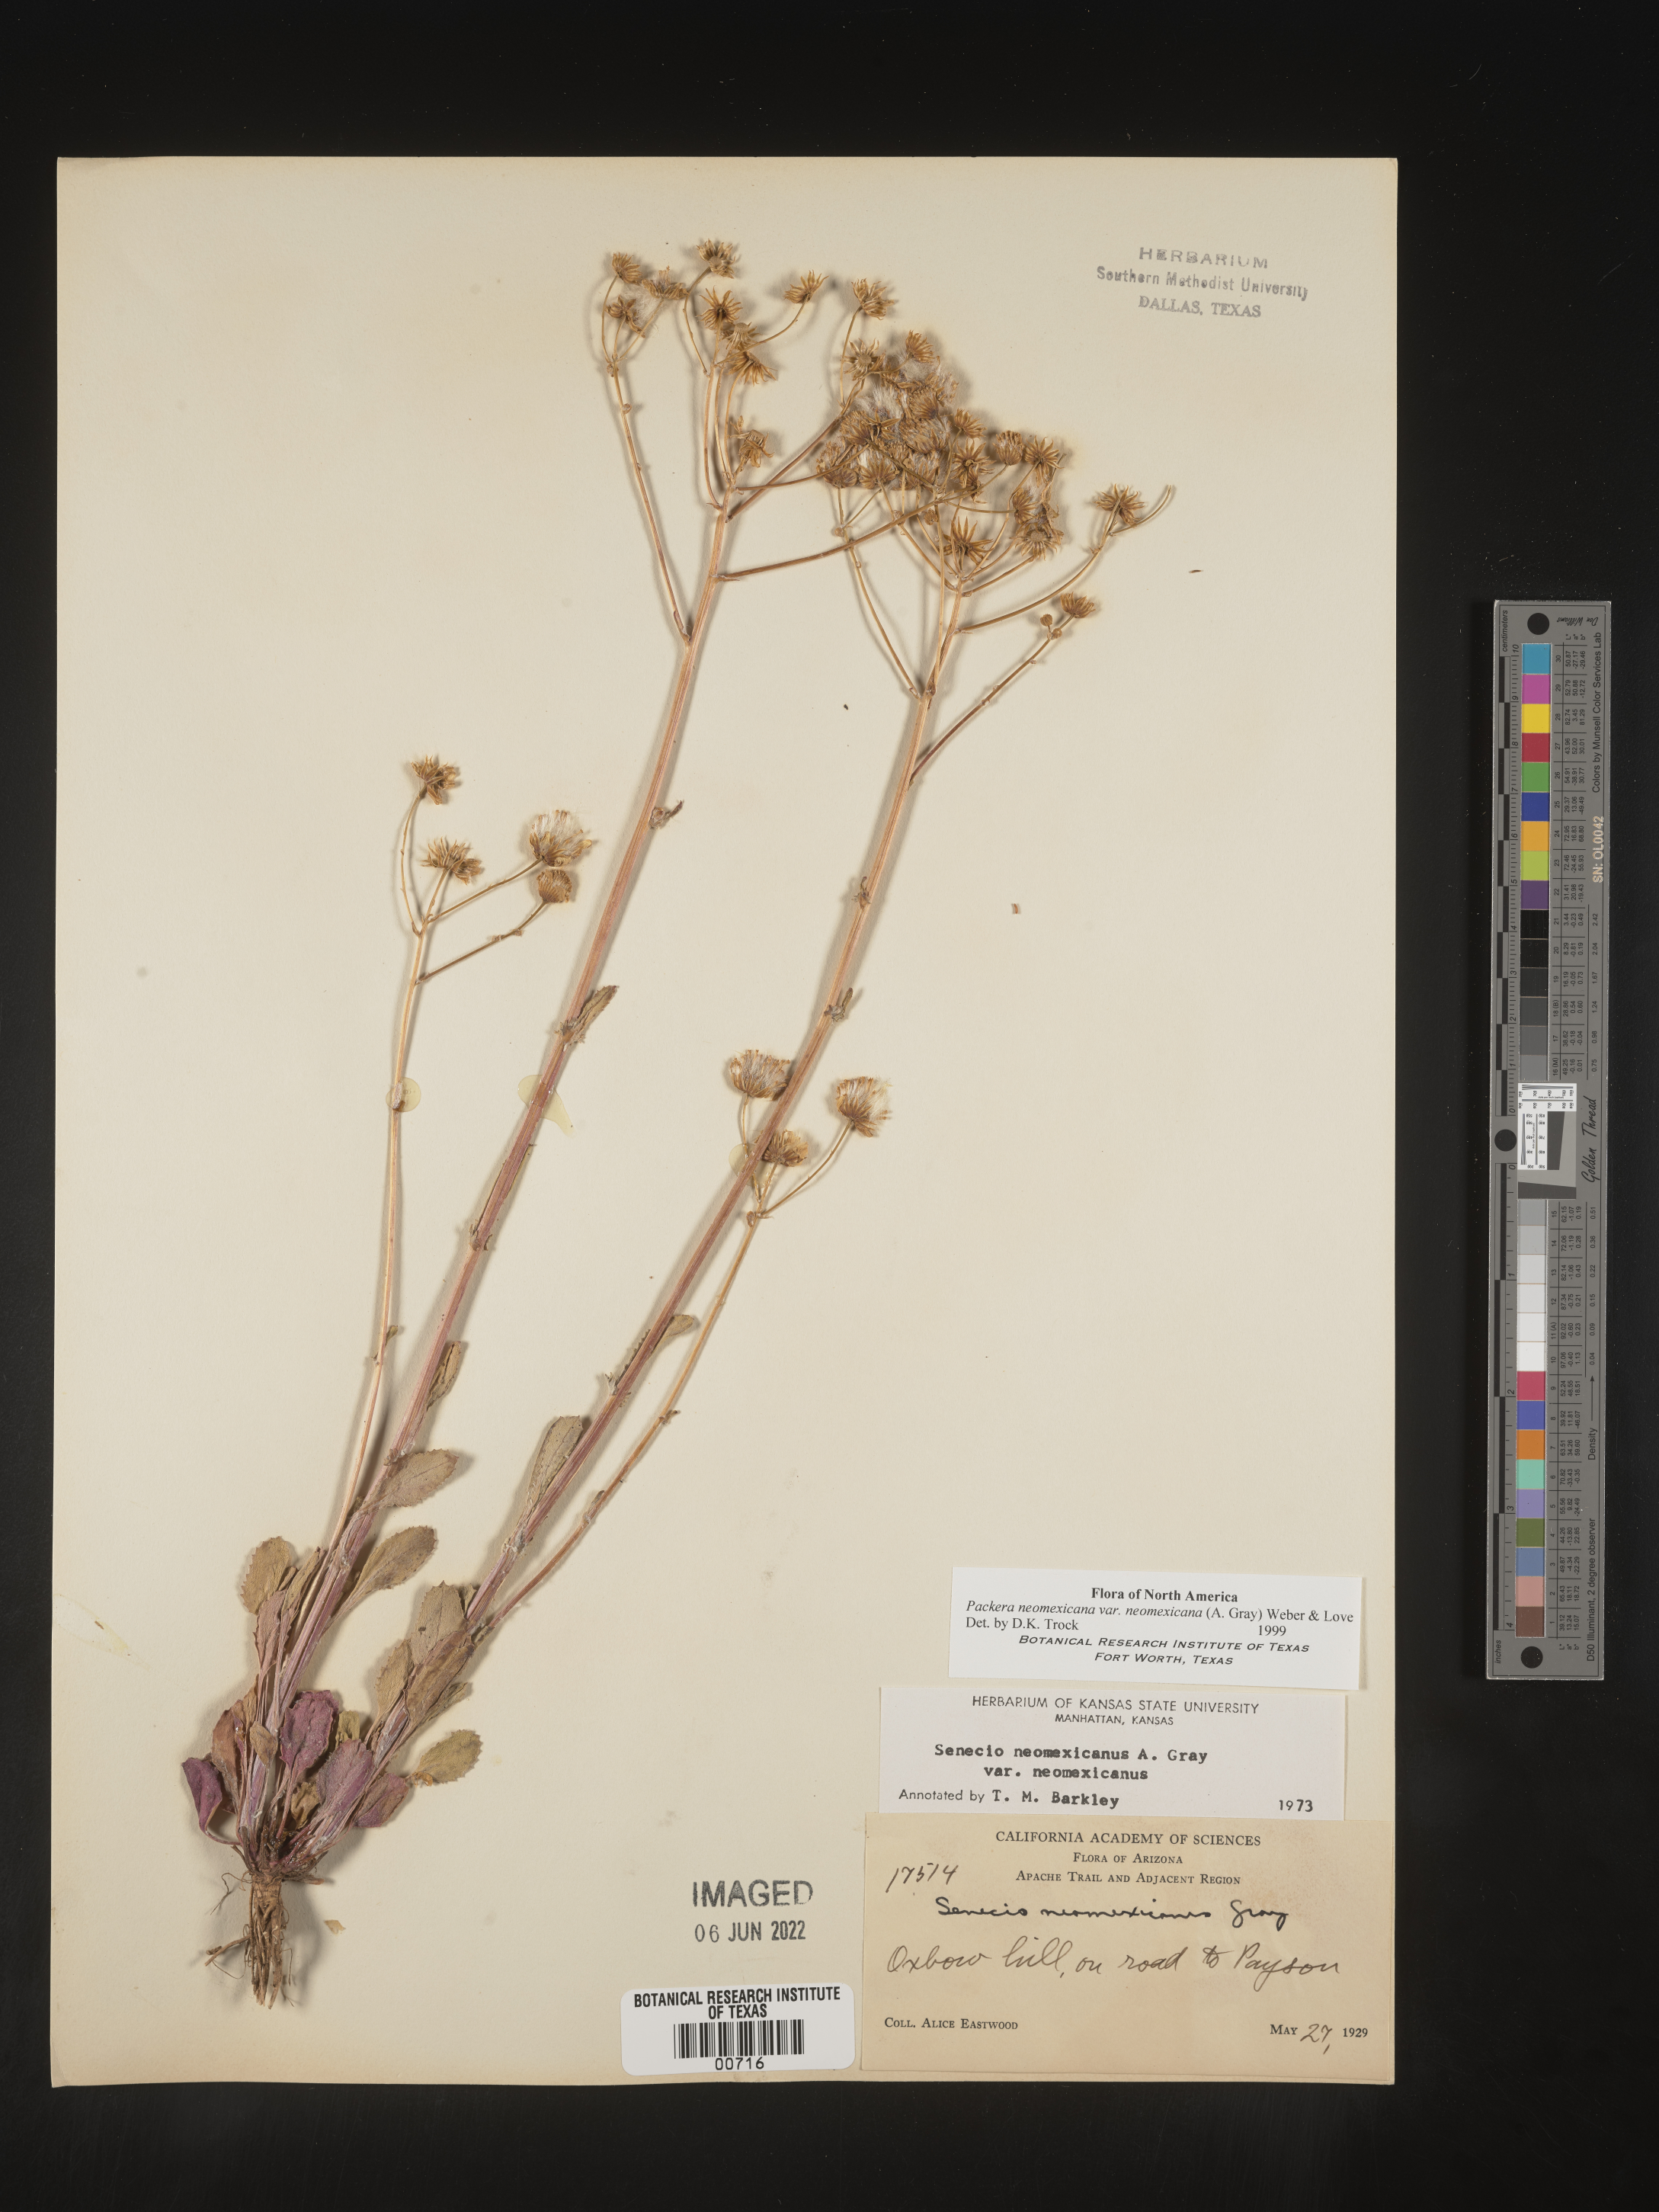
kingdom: Plantae
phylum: Tracheophyta
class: Magnoliopsida
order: Asterales
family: Asteraceae
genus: Packera
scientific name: Packera neomexicana
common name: New mexico butterweed
